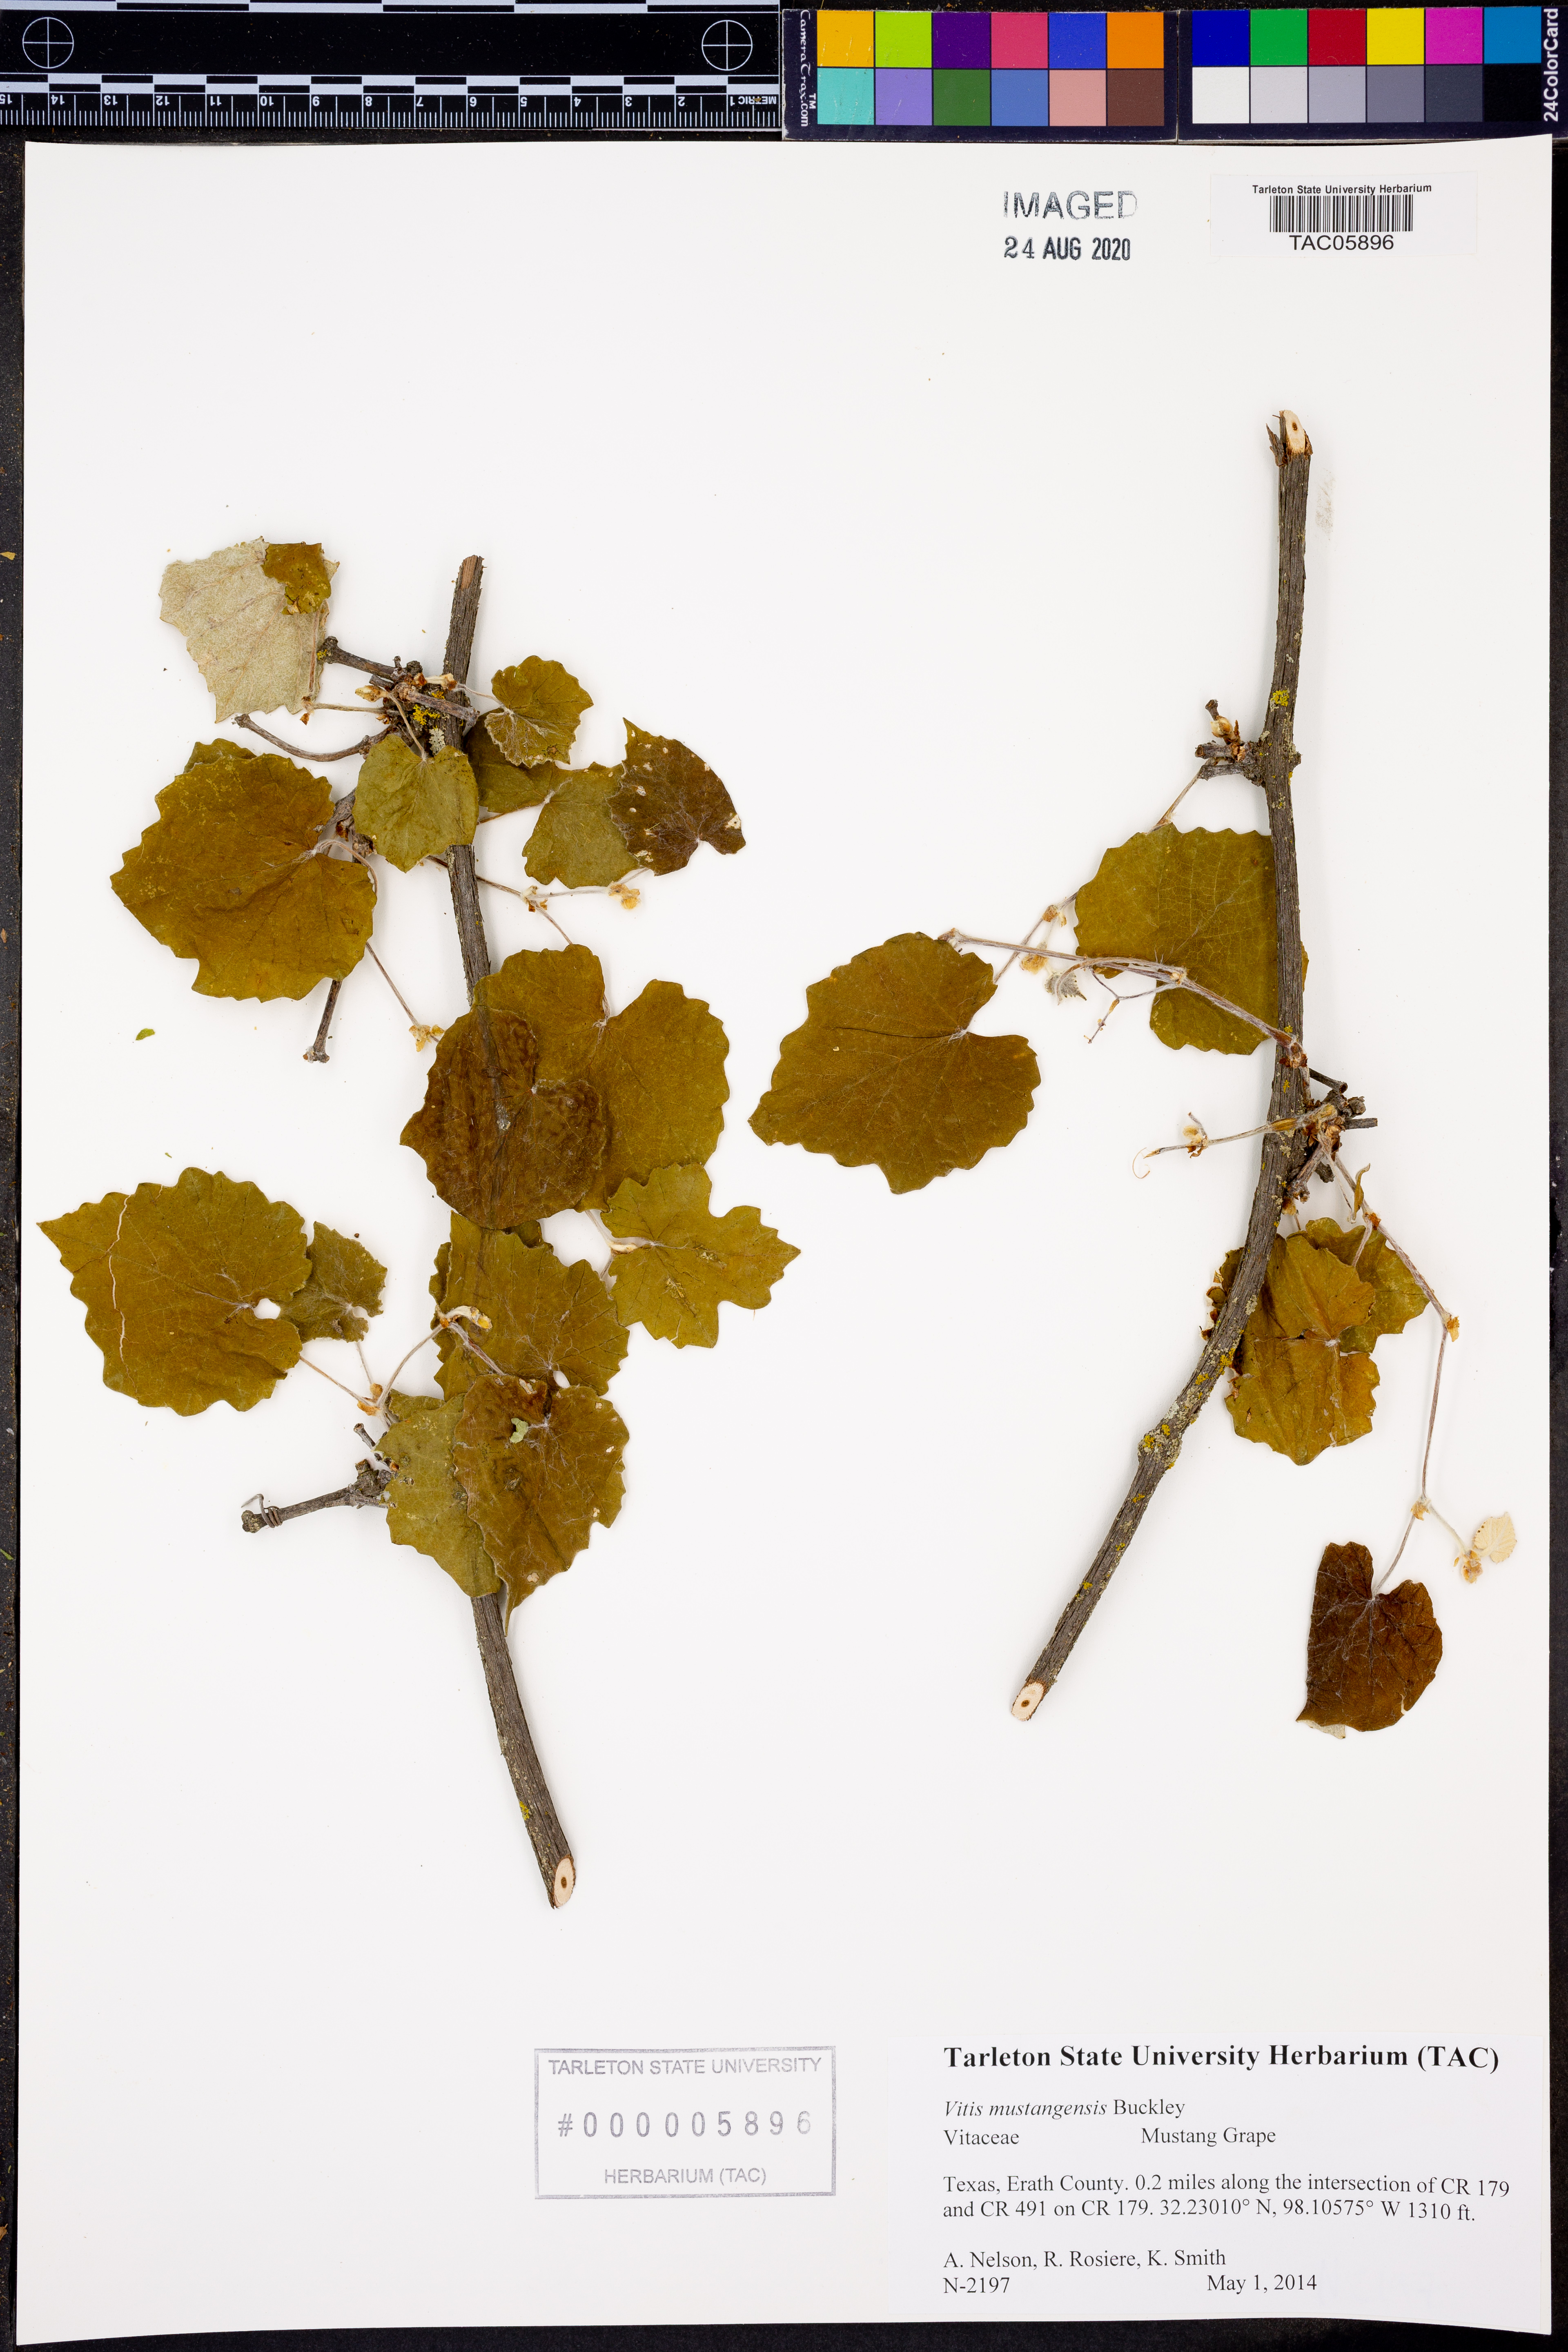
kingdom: Plantae
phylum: Tracheophyta
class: Magnoliopsida
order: Vitales
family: Vitaceae
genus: Vitis
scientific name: Vitis mustangensis
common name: Mustang grape
